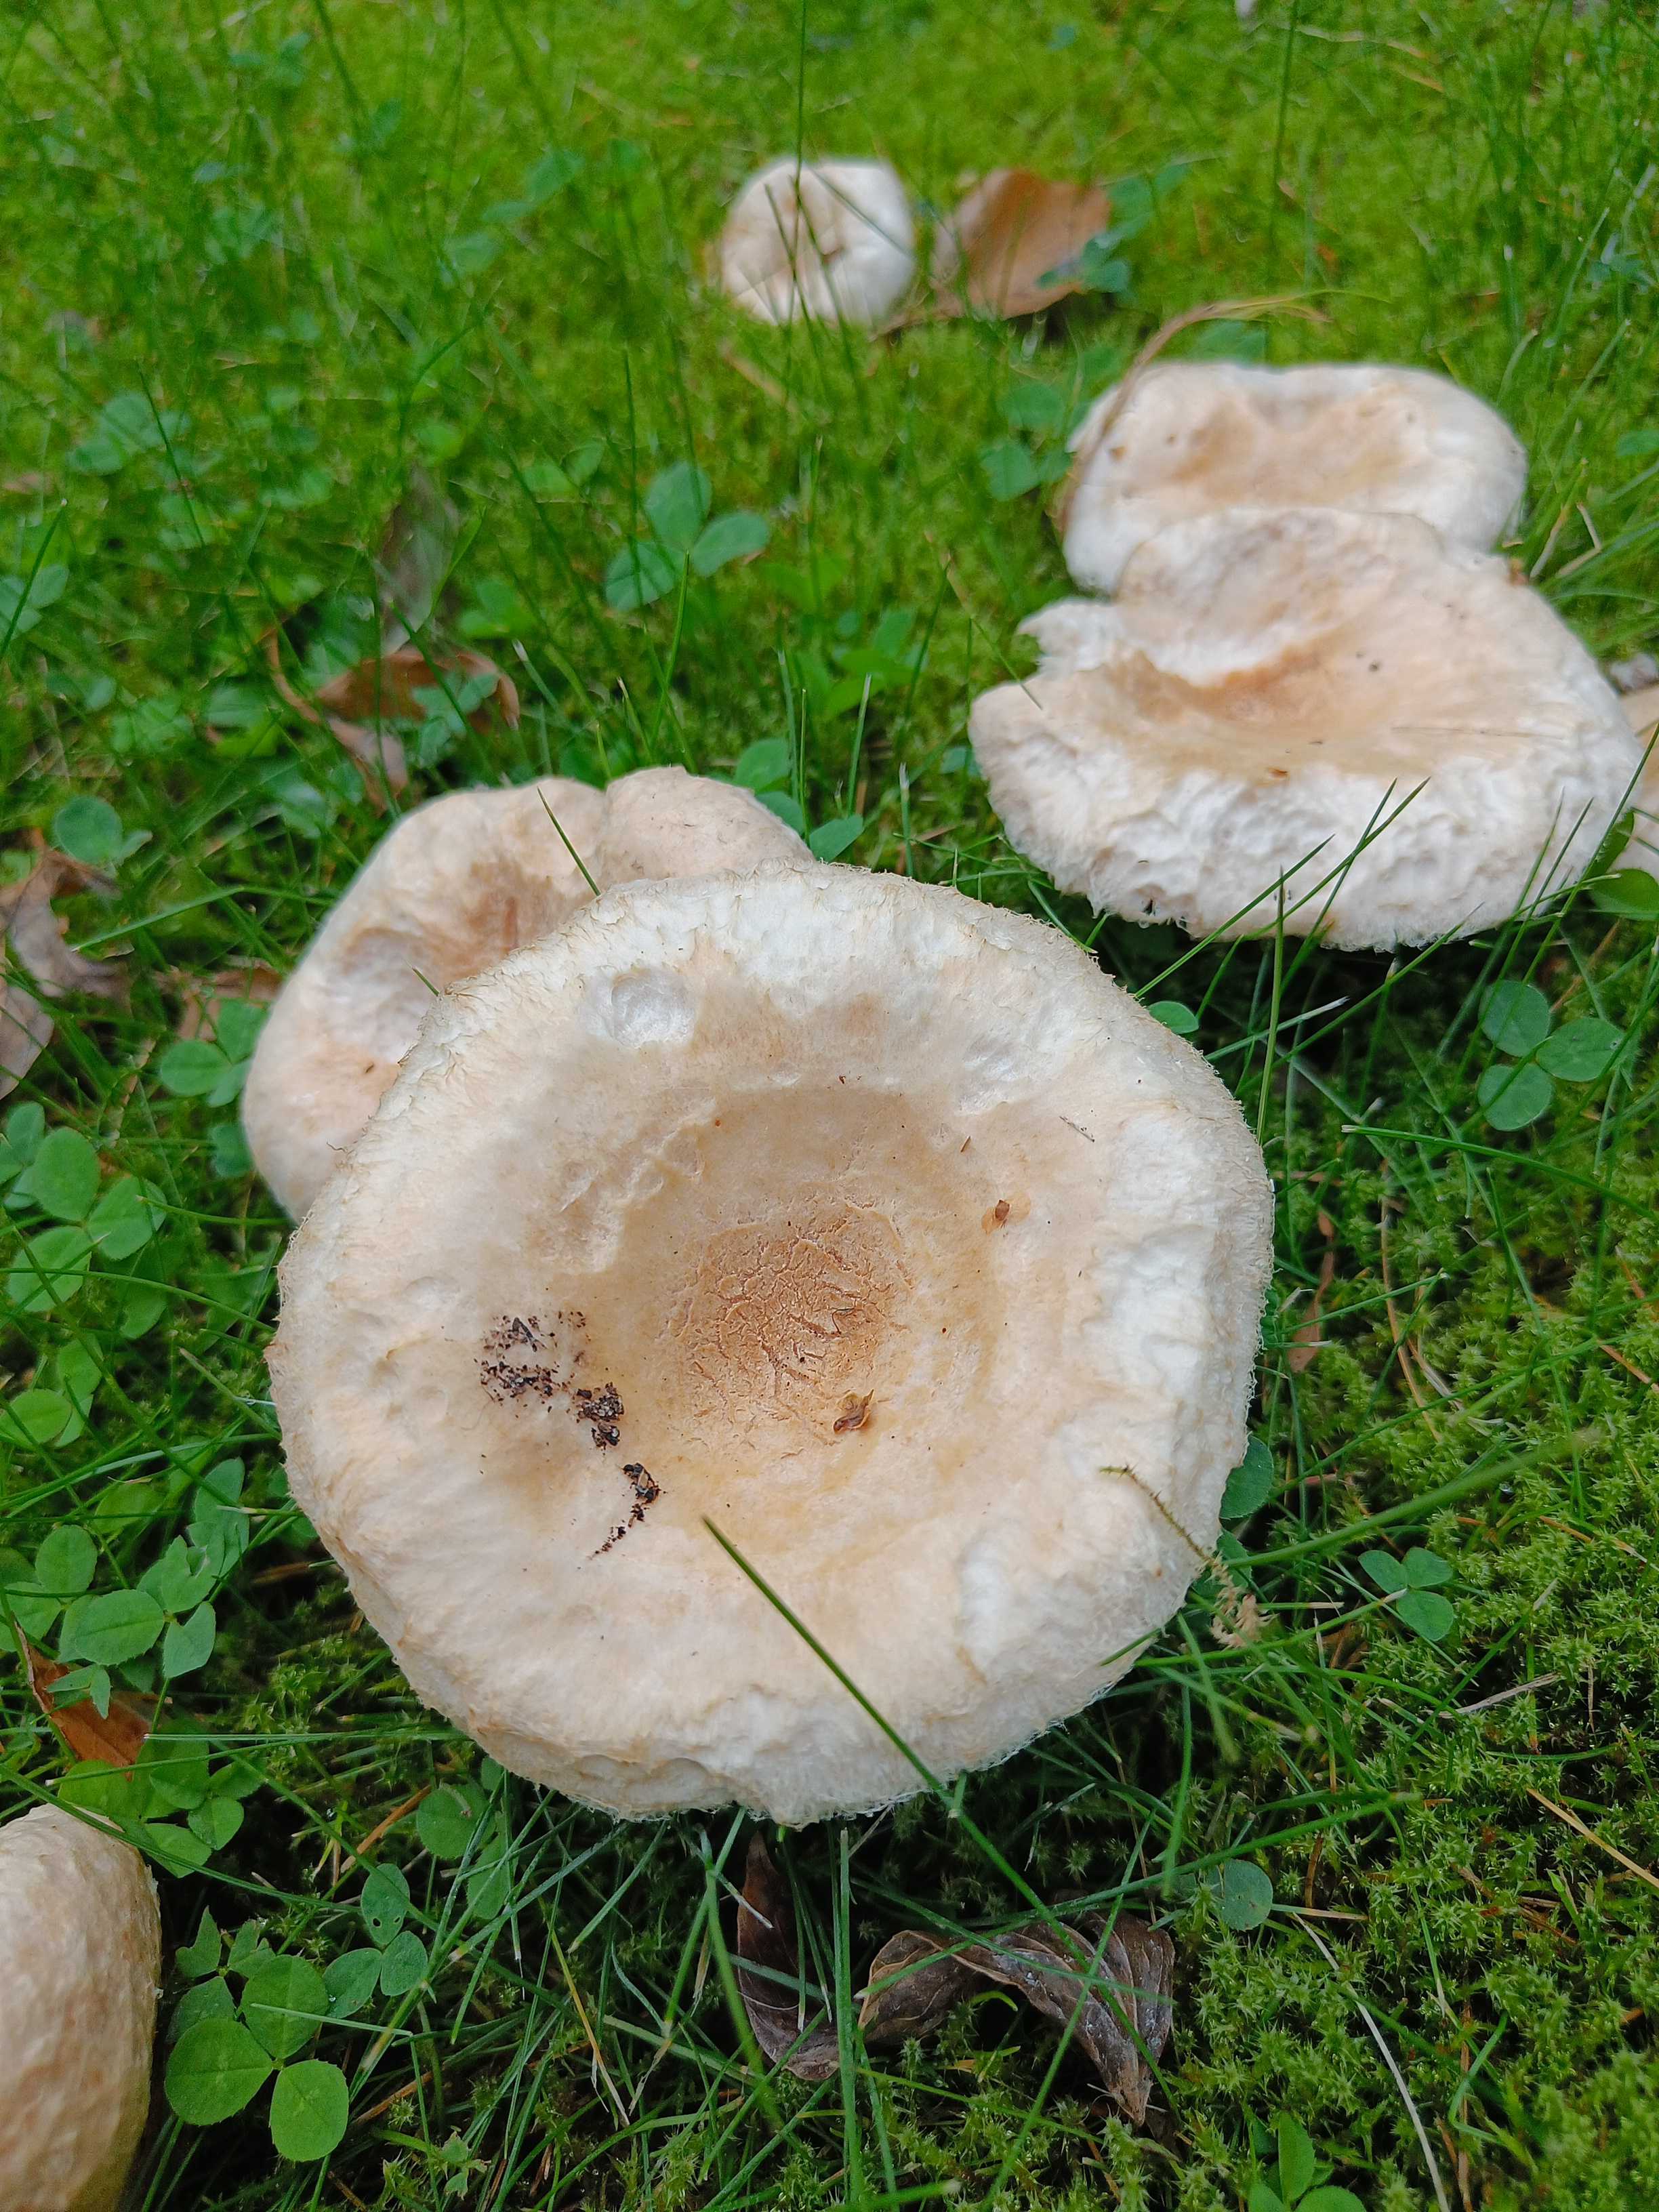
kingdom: Fungi
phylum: Basidiomycota
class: Agaricomycetes
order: Russulales
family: Russulaceae
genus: Lactarius
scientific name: Lactarius pubescens
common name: dunet mælkehat
